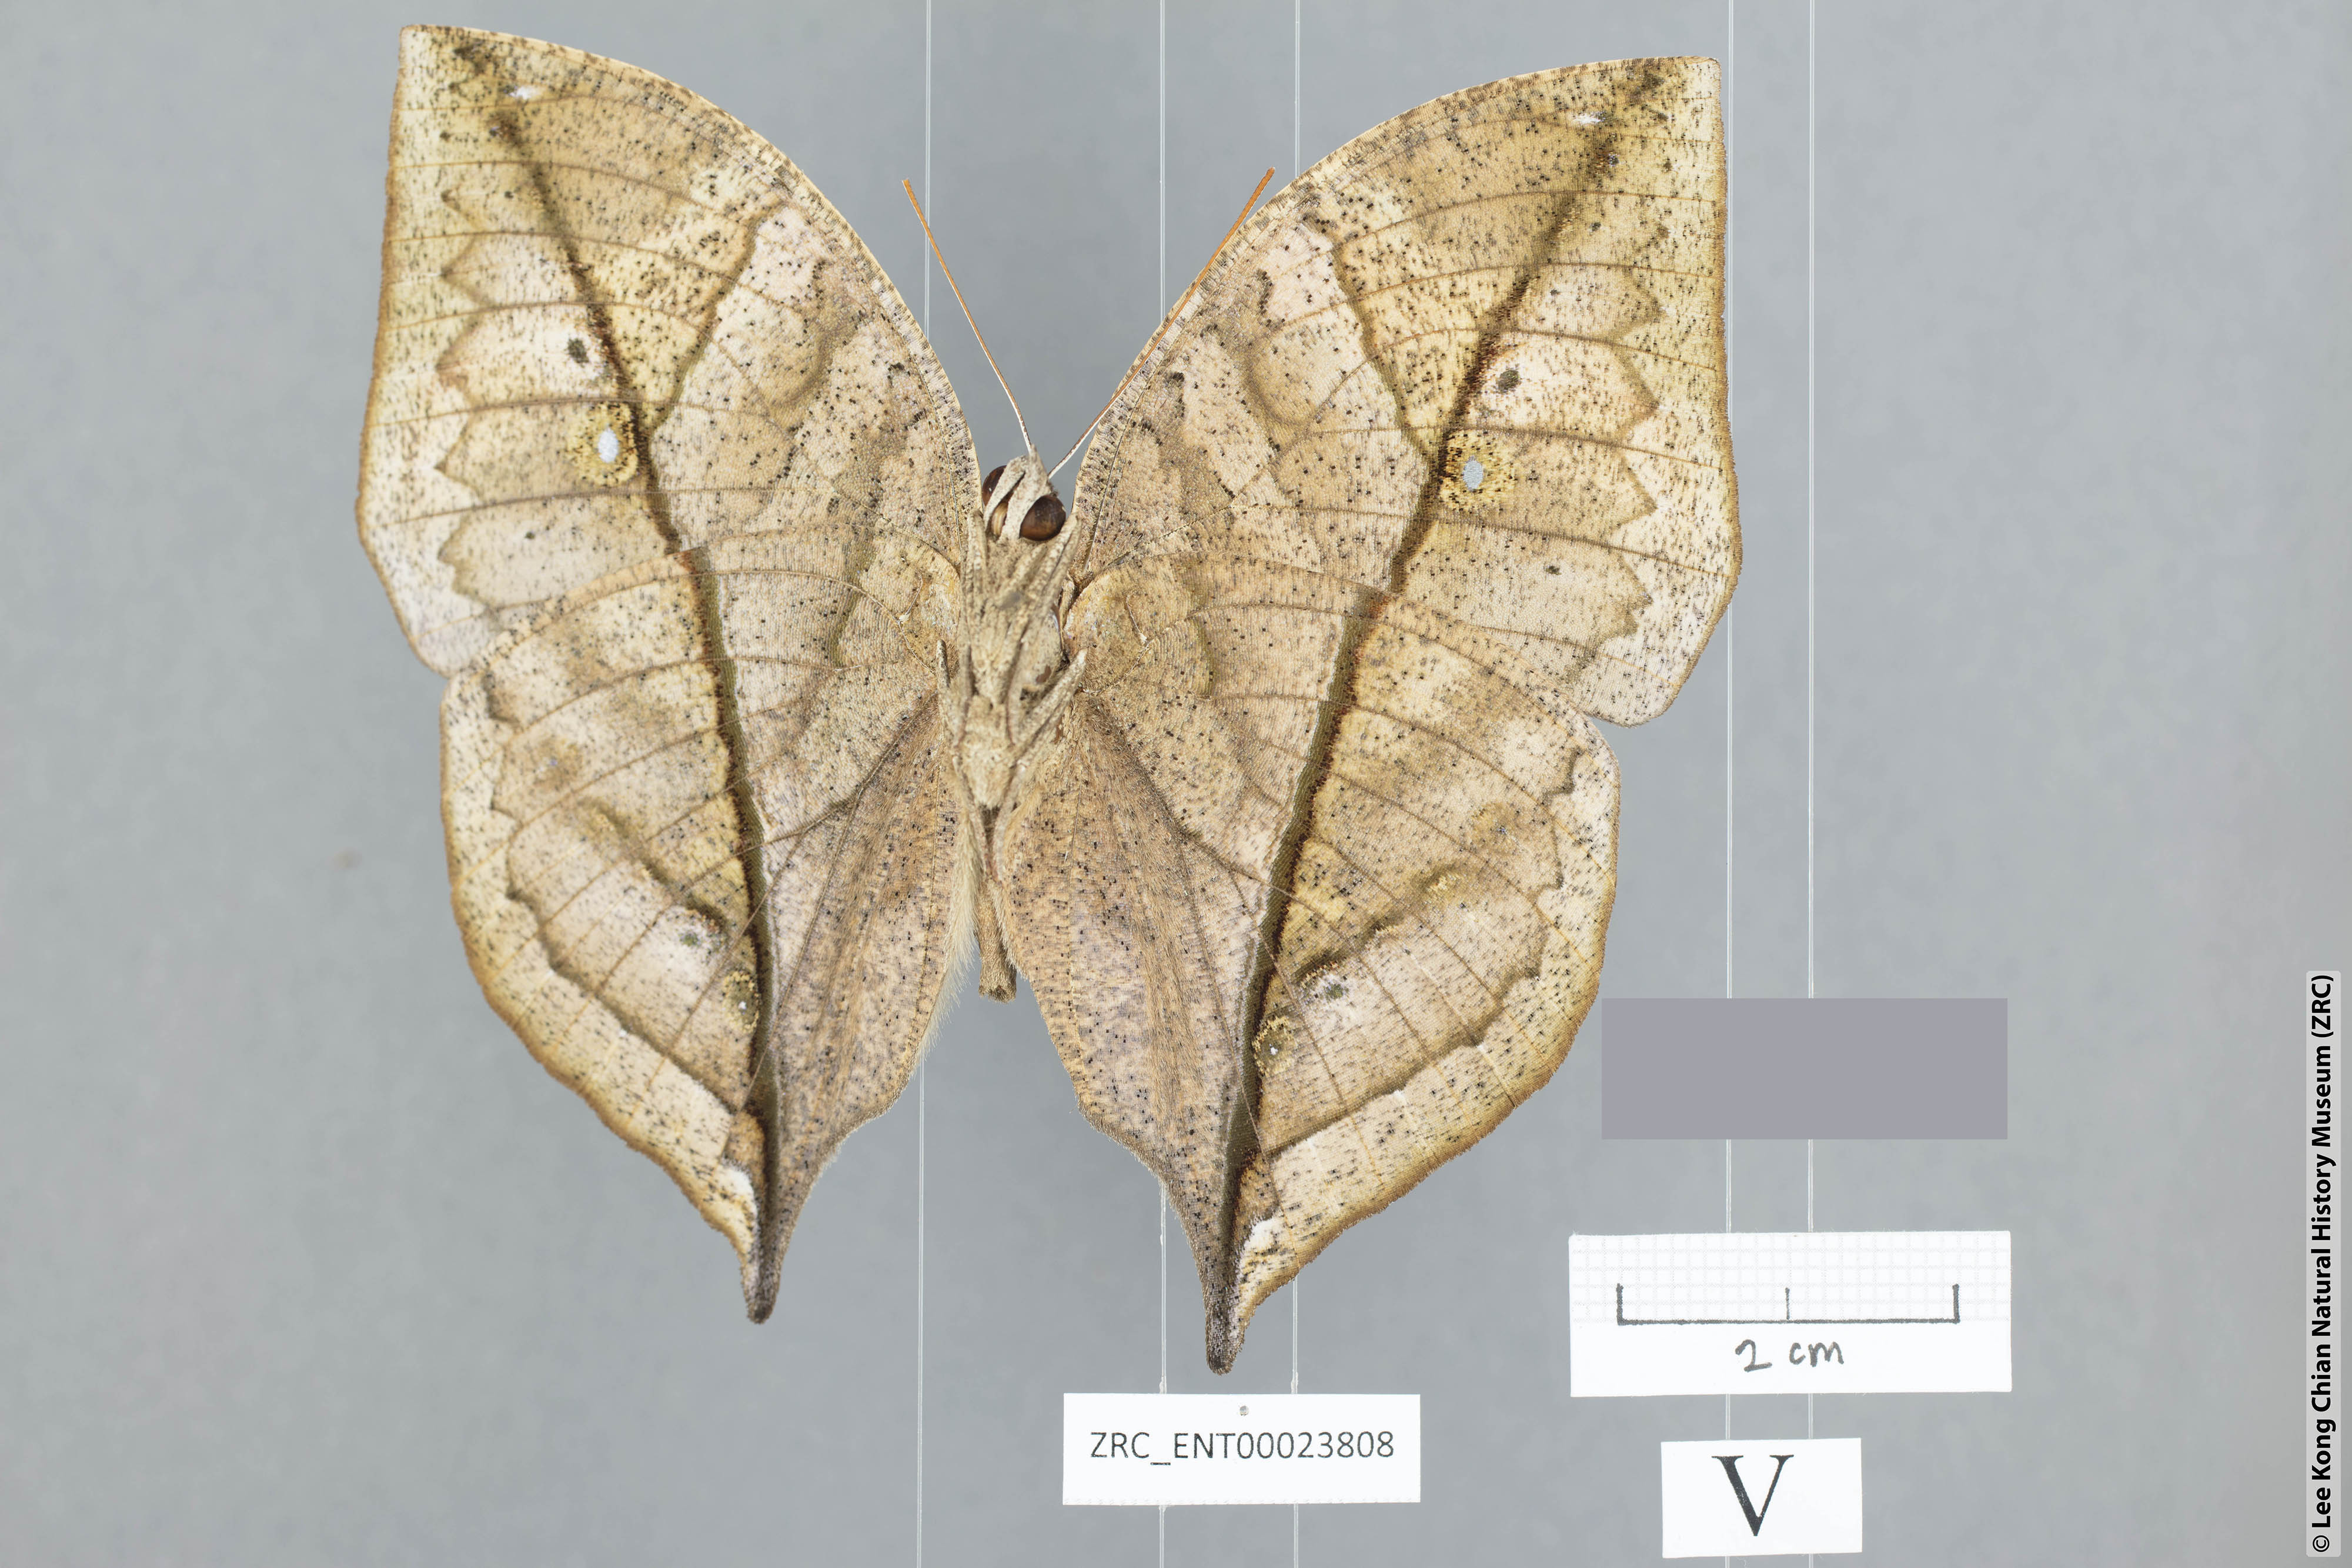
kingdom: Animalia
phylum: Arthropoda
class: Insecta
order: Lepidoptera
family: Nymphalidae
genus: Kallima
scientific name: Kallima paralekta
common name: Indian leafwing
